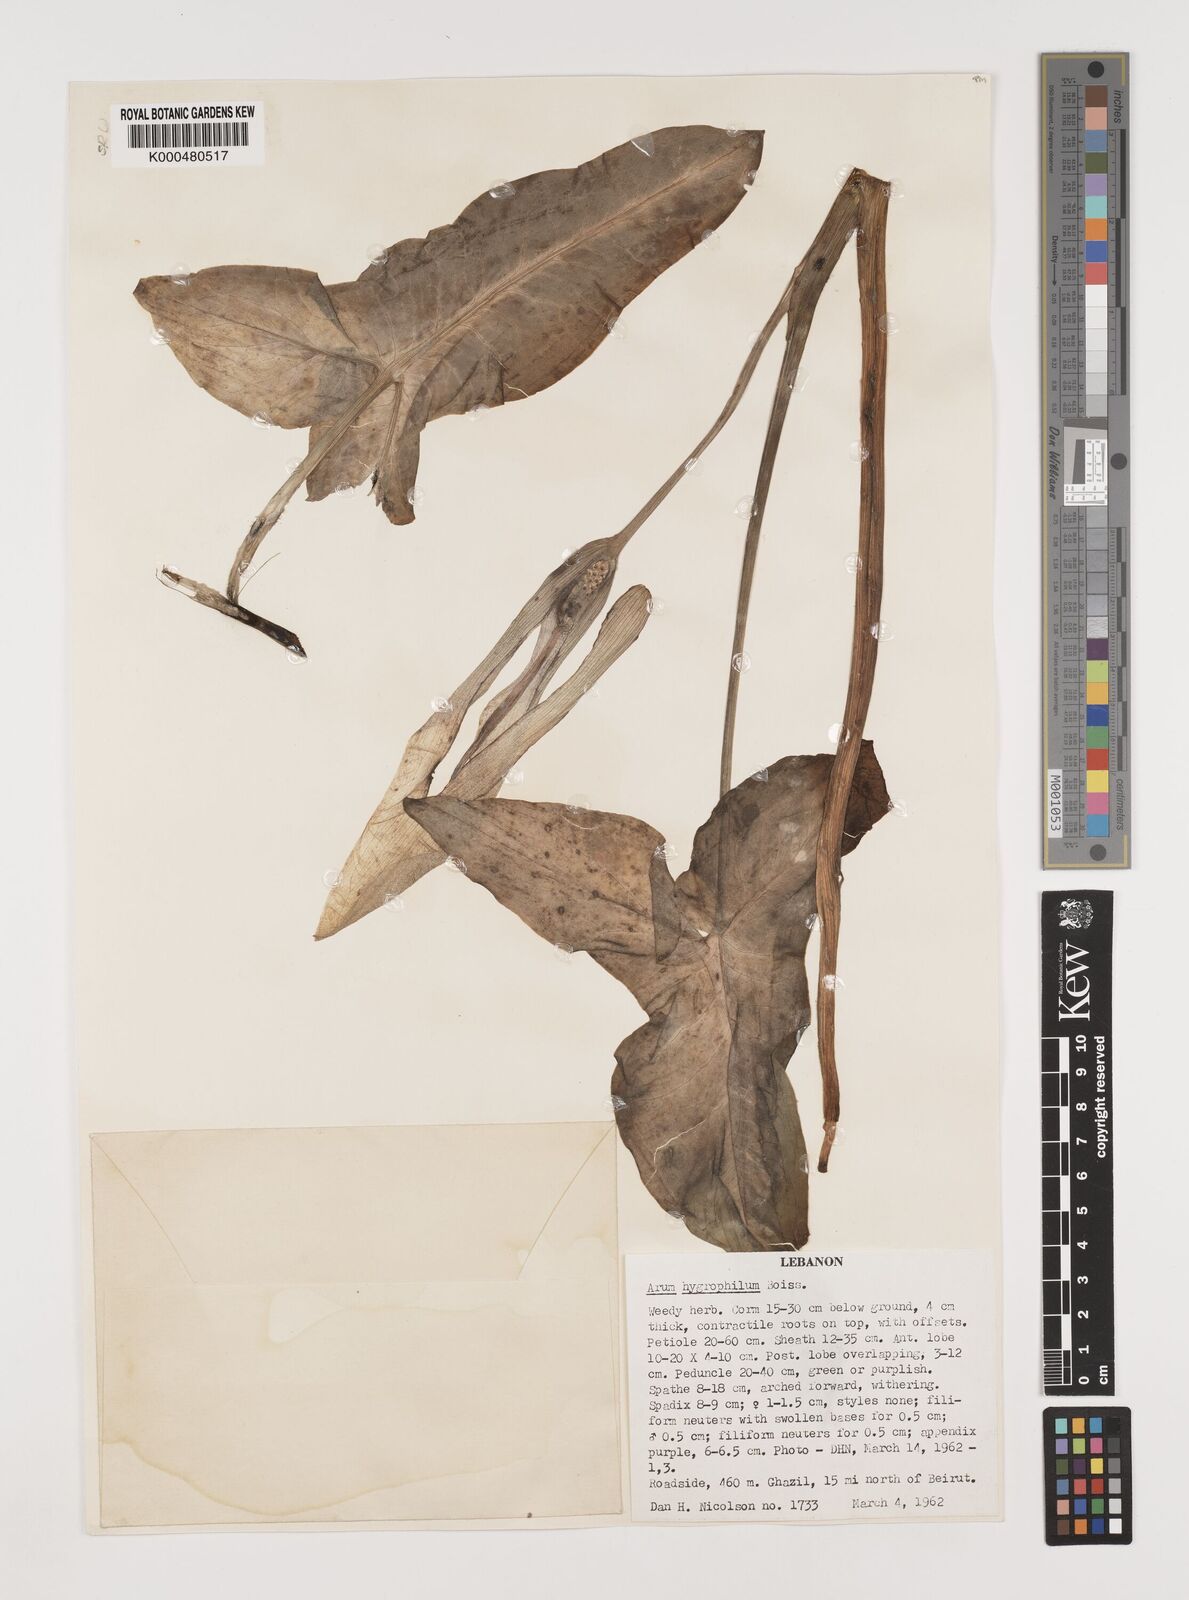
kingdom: Plantae
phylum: Tracheophyta
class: Liliopsida
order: Alismatales
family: Araceae
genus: Arum
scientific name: Arum hygrophilum
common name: Water arum
